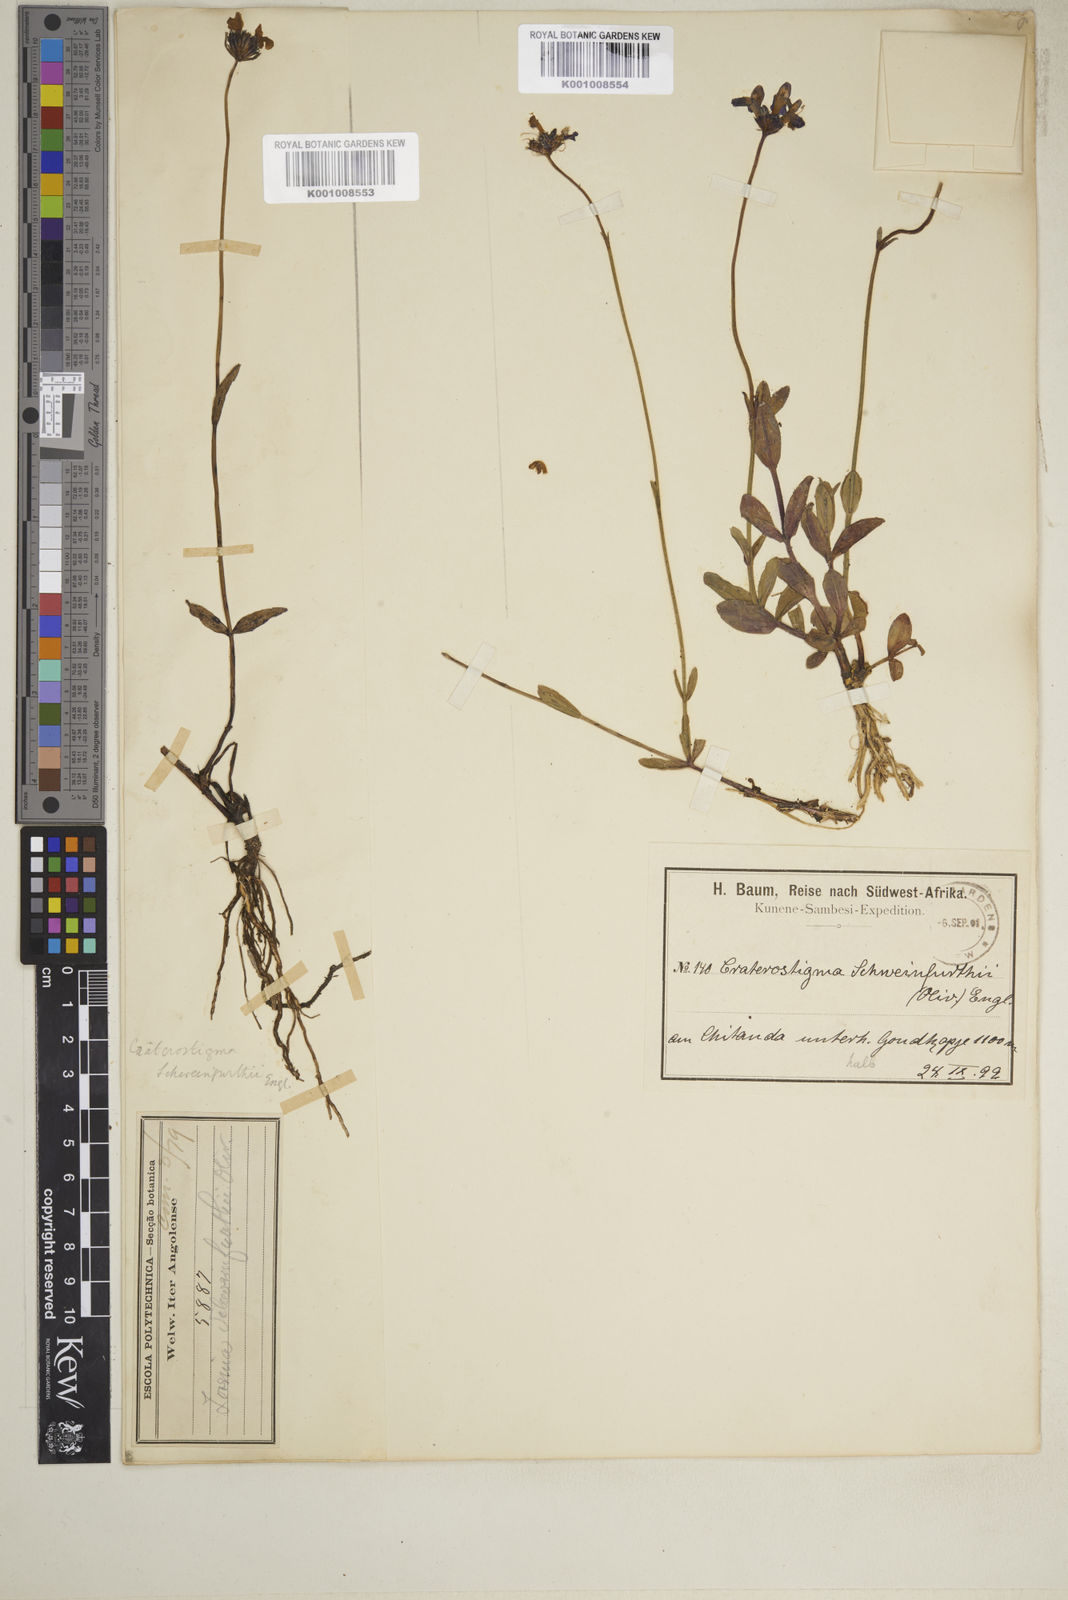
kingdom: Plantae
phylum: Tracheophyta
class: Magnoliopsida
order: Lamiales
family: Linderniaceae
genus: Crepidorhopalon
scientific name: Crepidorhopalon schweinfurthii
